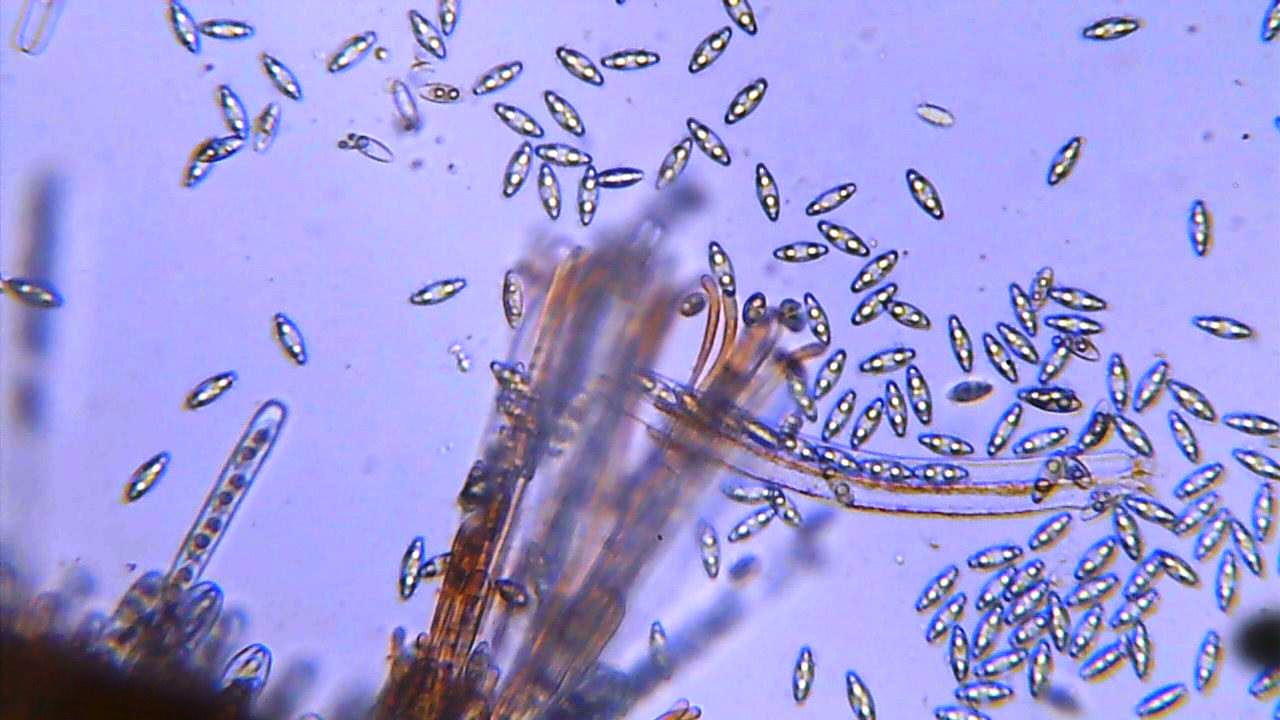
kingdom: Fungi
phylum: Ascomycota
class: Pezizomycetes
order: Pezizales
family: Pyronemataceae
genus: Byssonectria
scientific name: Byssonectria terrestris
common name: hjortebæger
